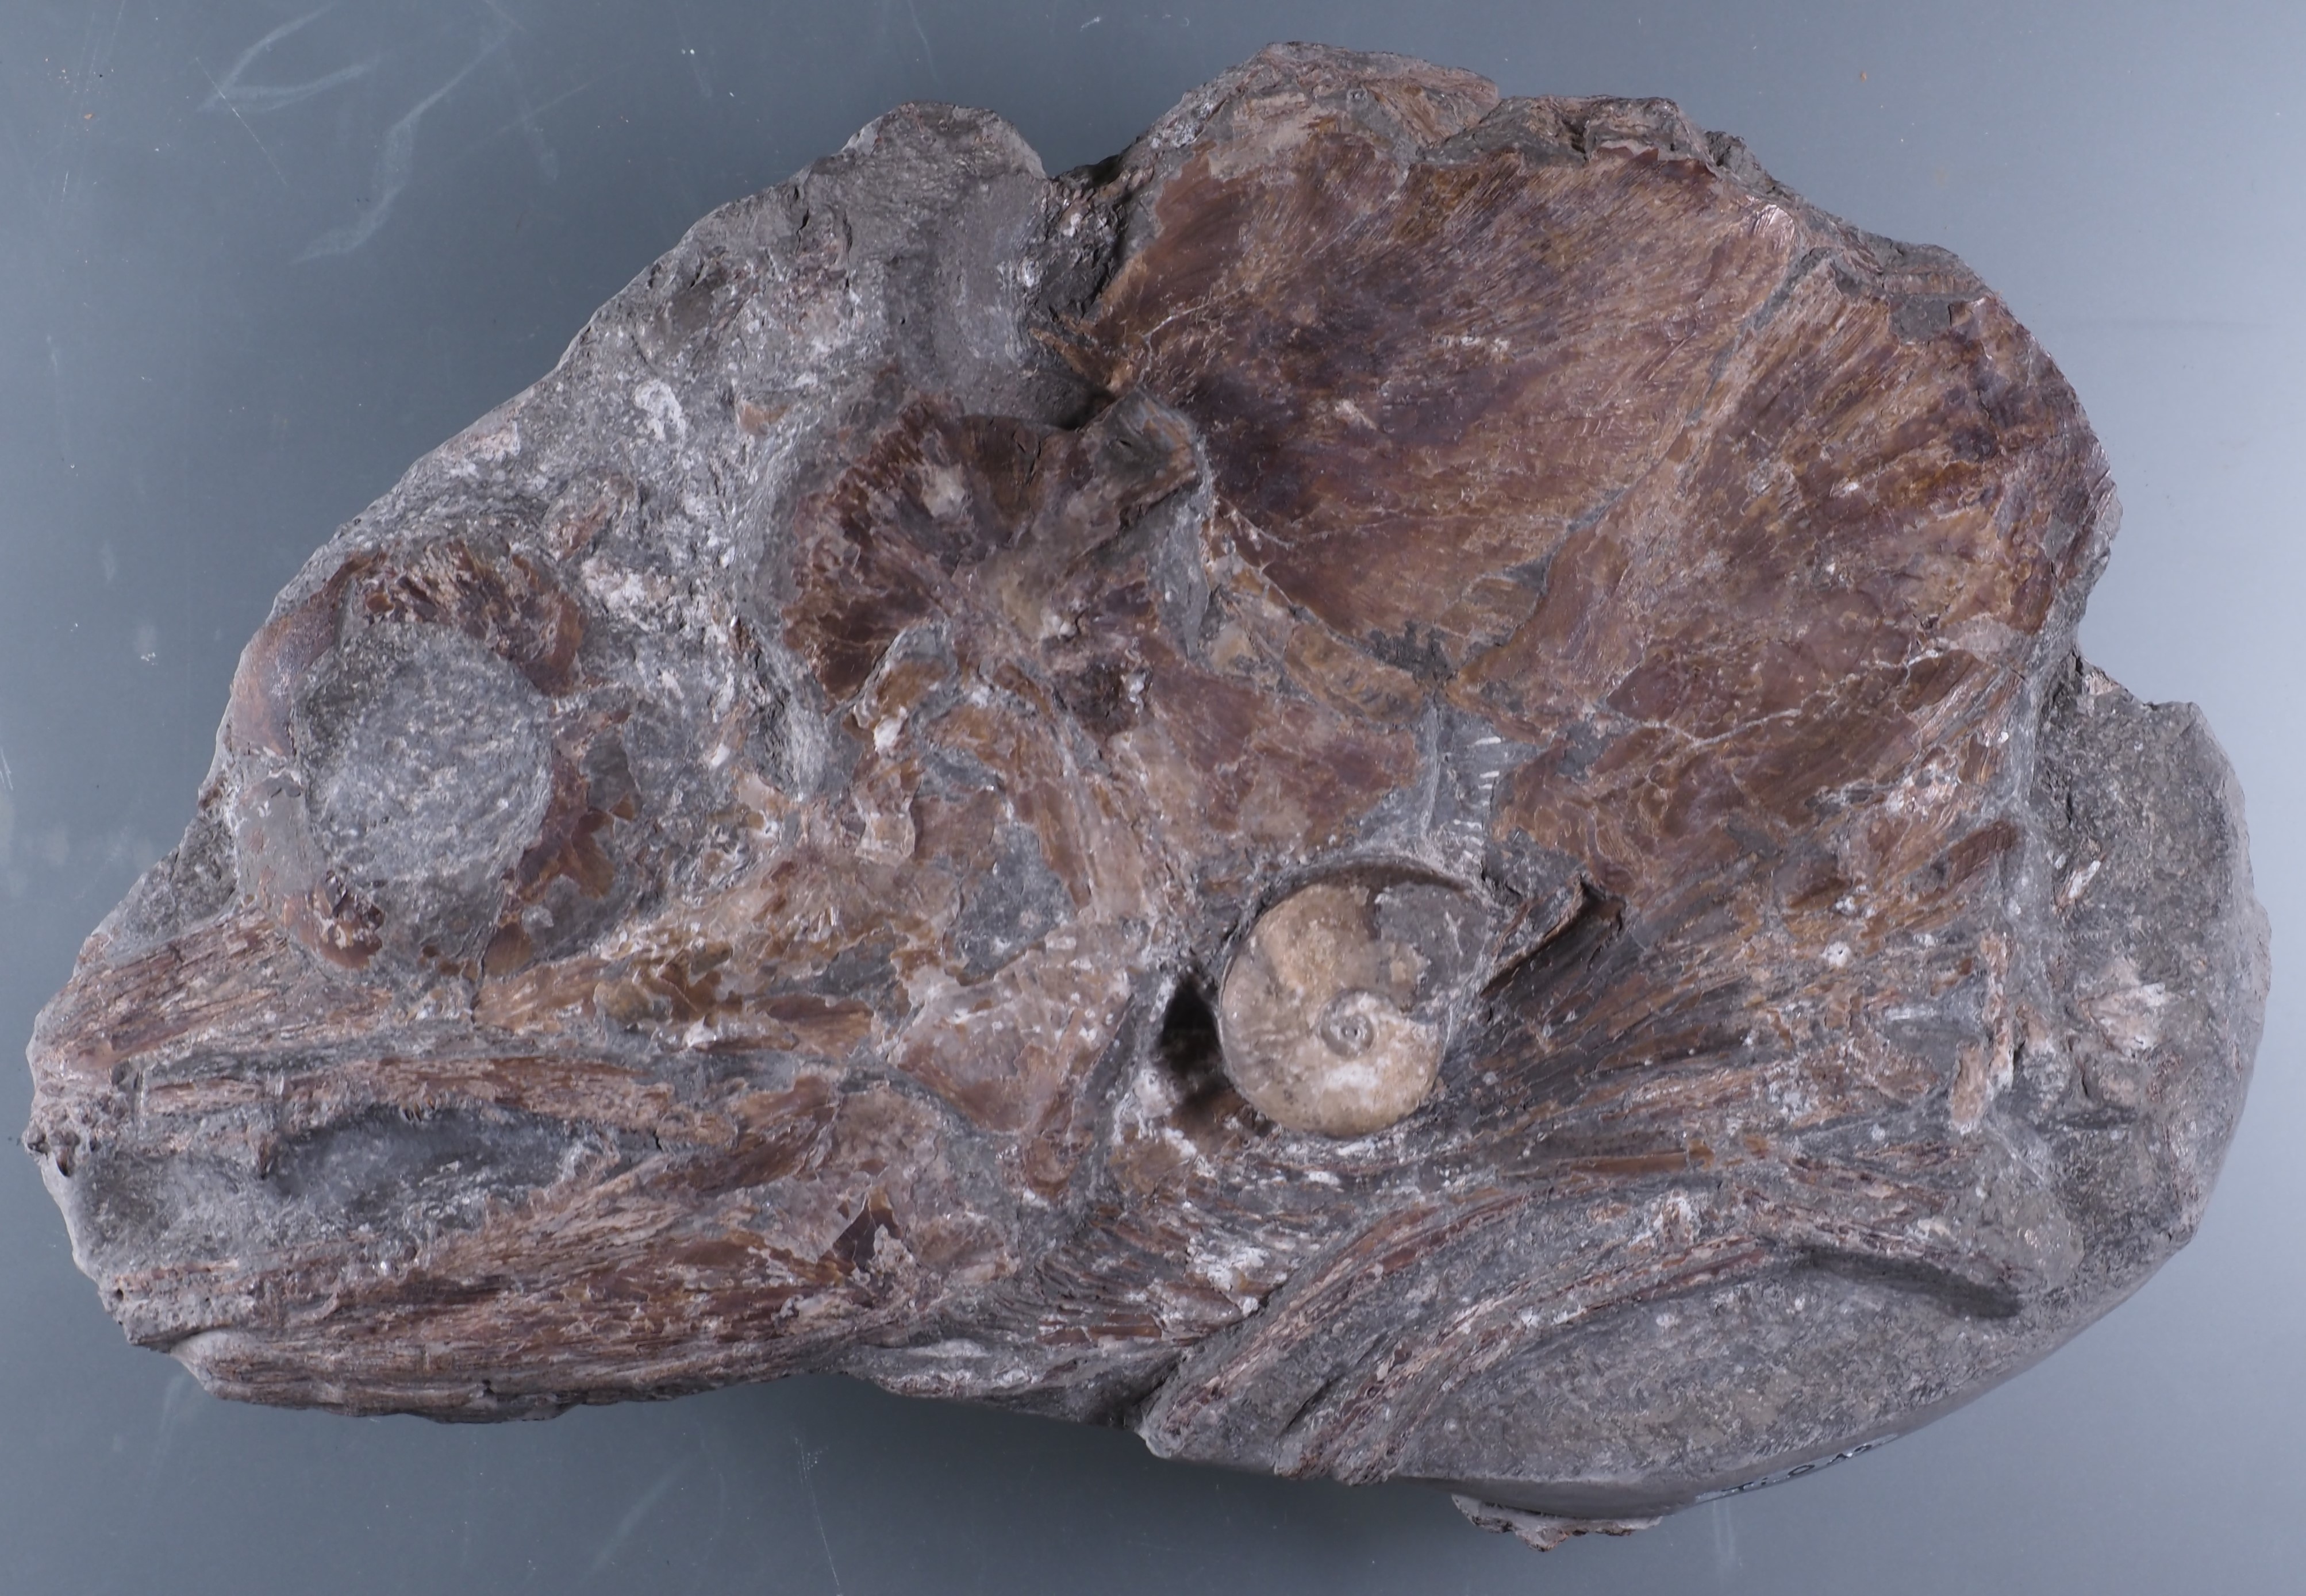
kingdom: Animalia
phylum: Chordata
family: Pachycormidae
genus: Saurostomus
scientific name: Saurostomus esocinus
